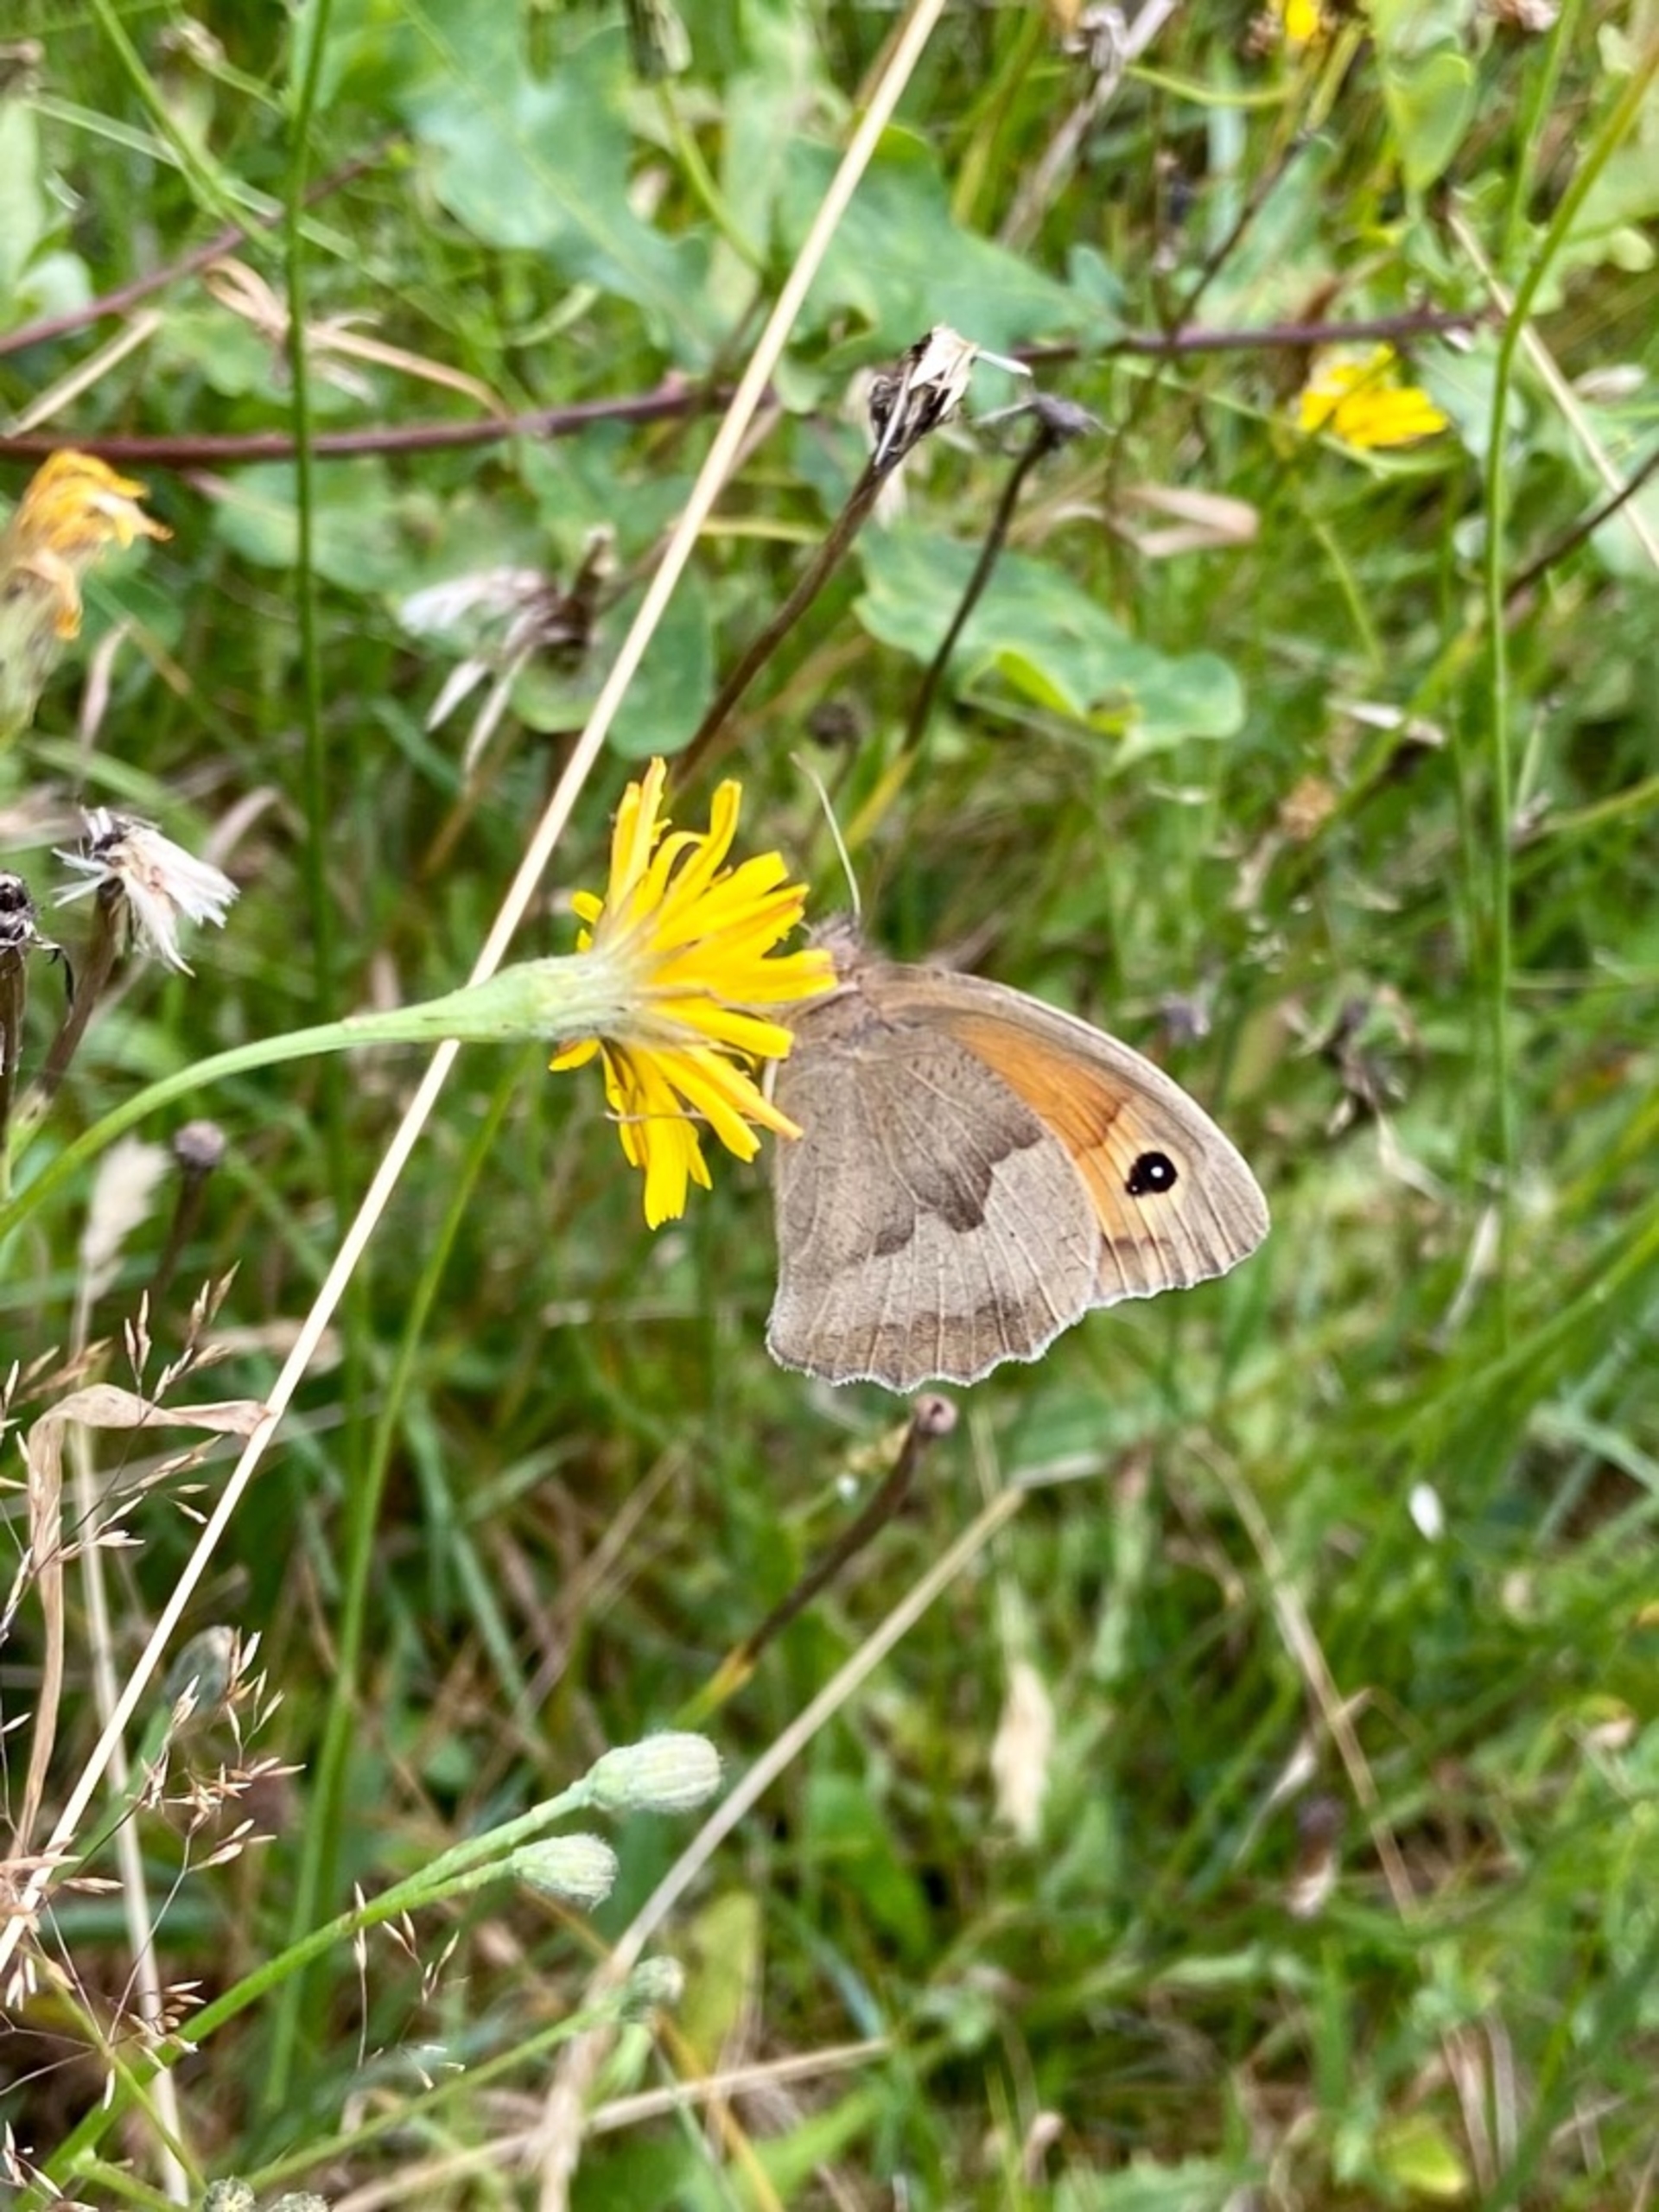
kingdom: Animalia
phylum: Arthropoda
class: Insecta
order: Lepidoptera
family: Nymphalidae
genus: Maniola
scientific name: Maniola jurtina
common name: Græsrandøje
